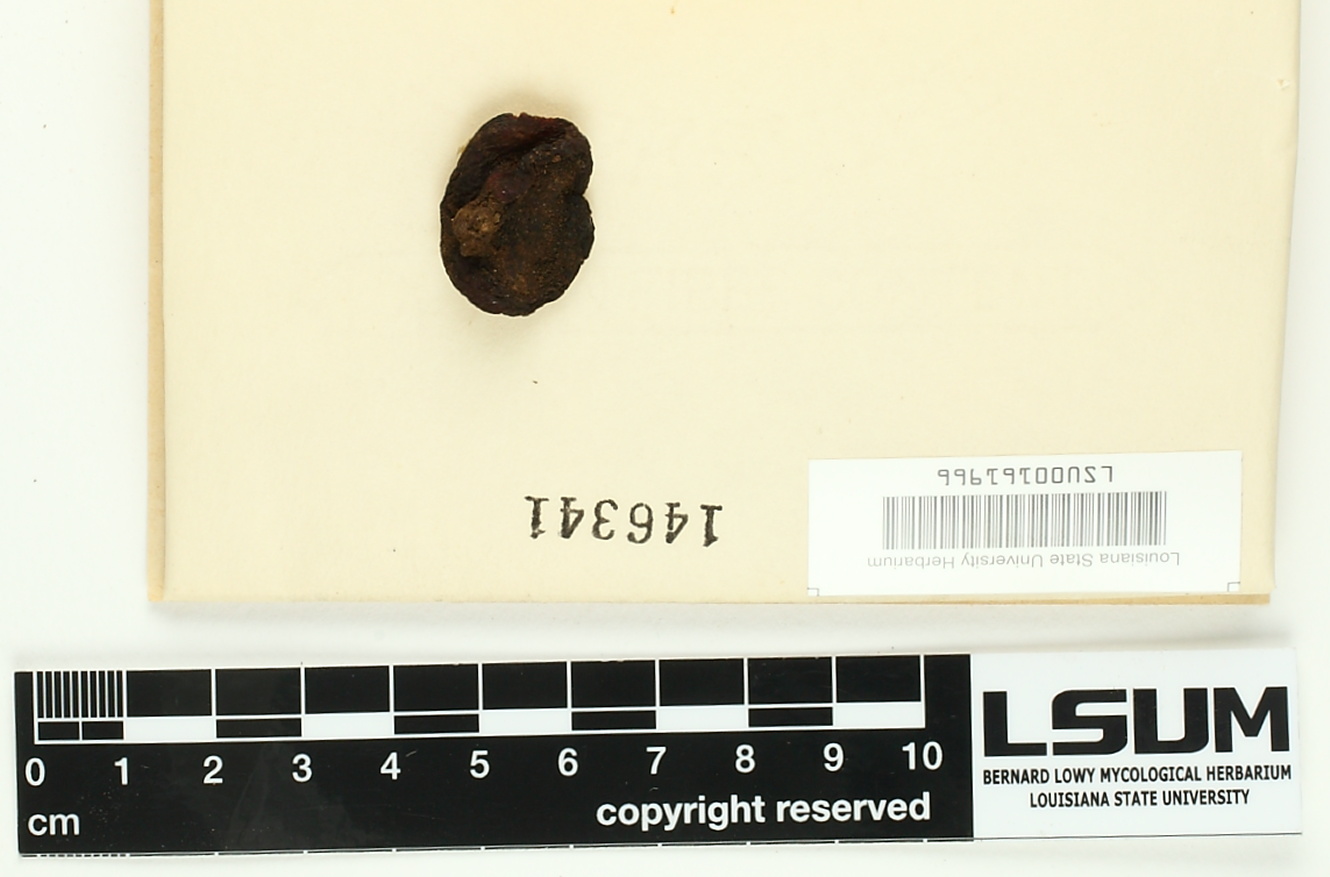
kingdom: Fungi
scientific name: Fungi
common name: Fungi
